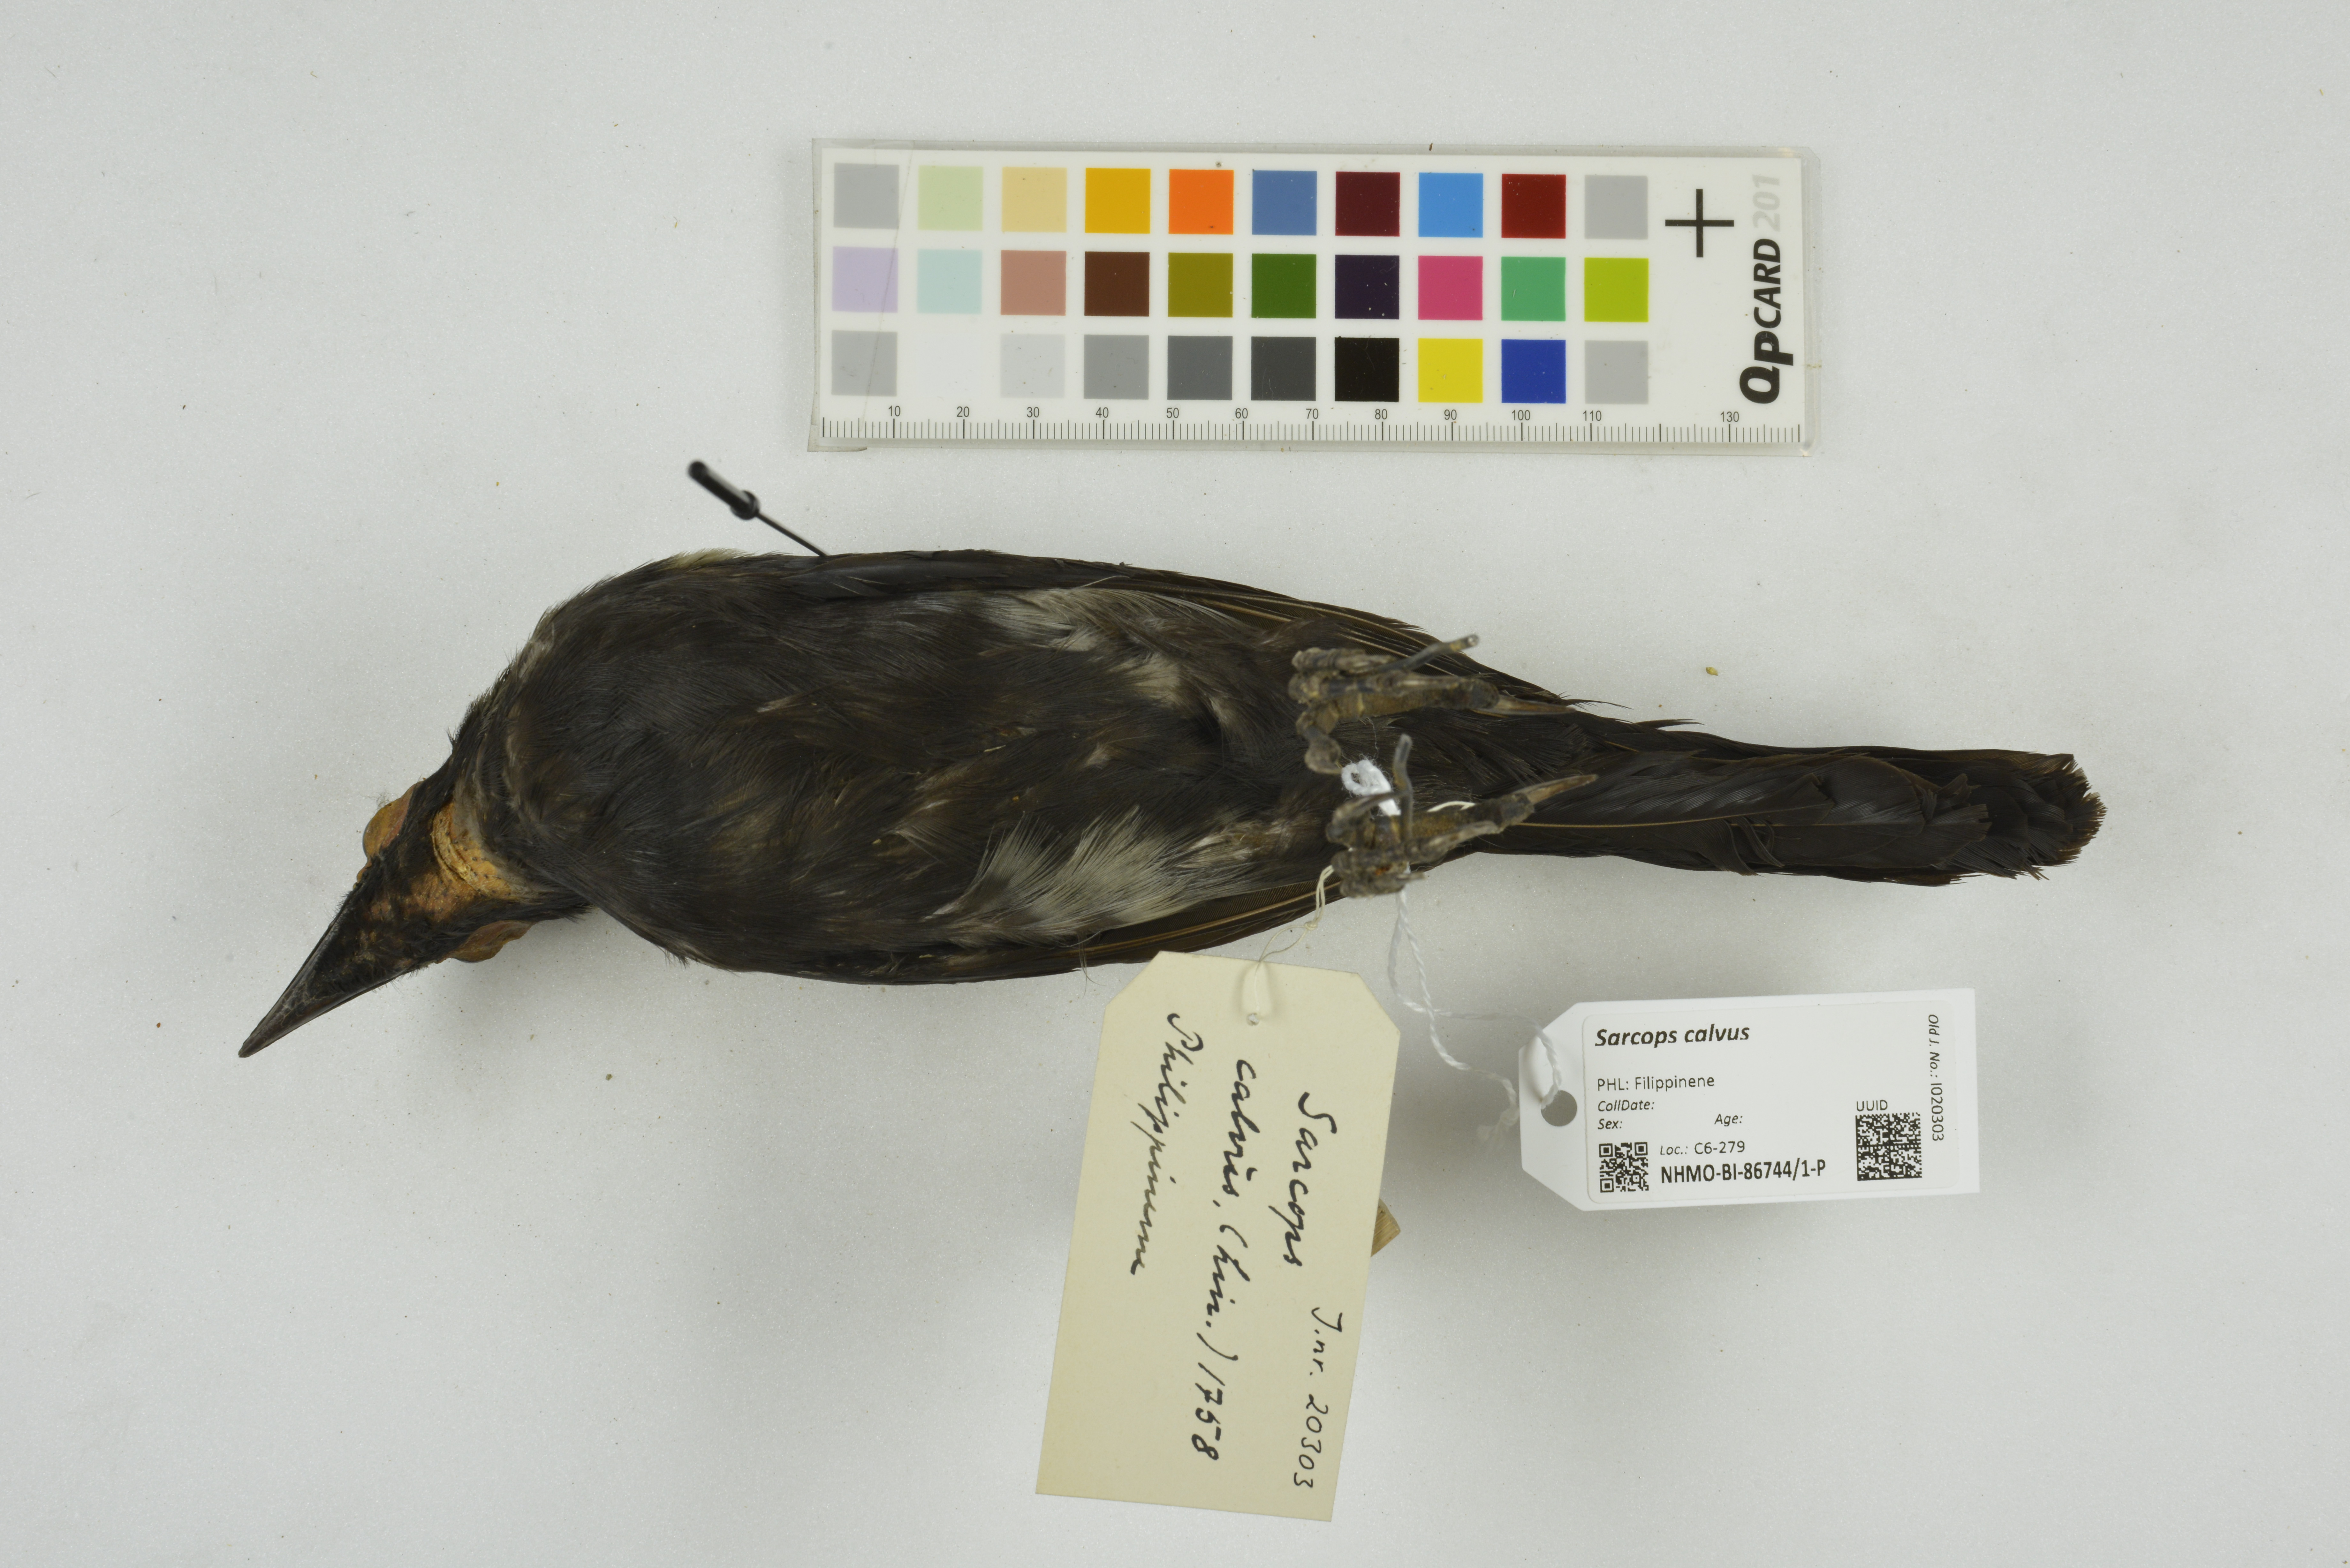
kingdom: Animalia
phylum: Chordata
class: Aves
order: Passeriformes
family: Sturnidae
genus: Sarcops
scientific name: Sarcops calvus
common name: Coleto
